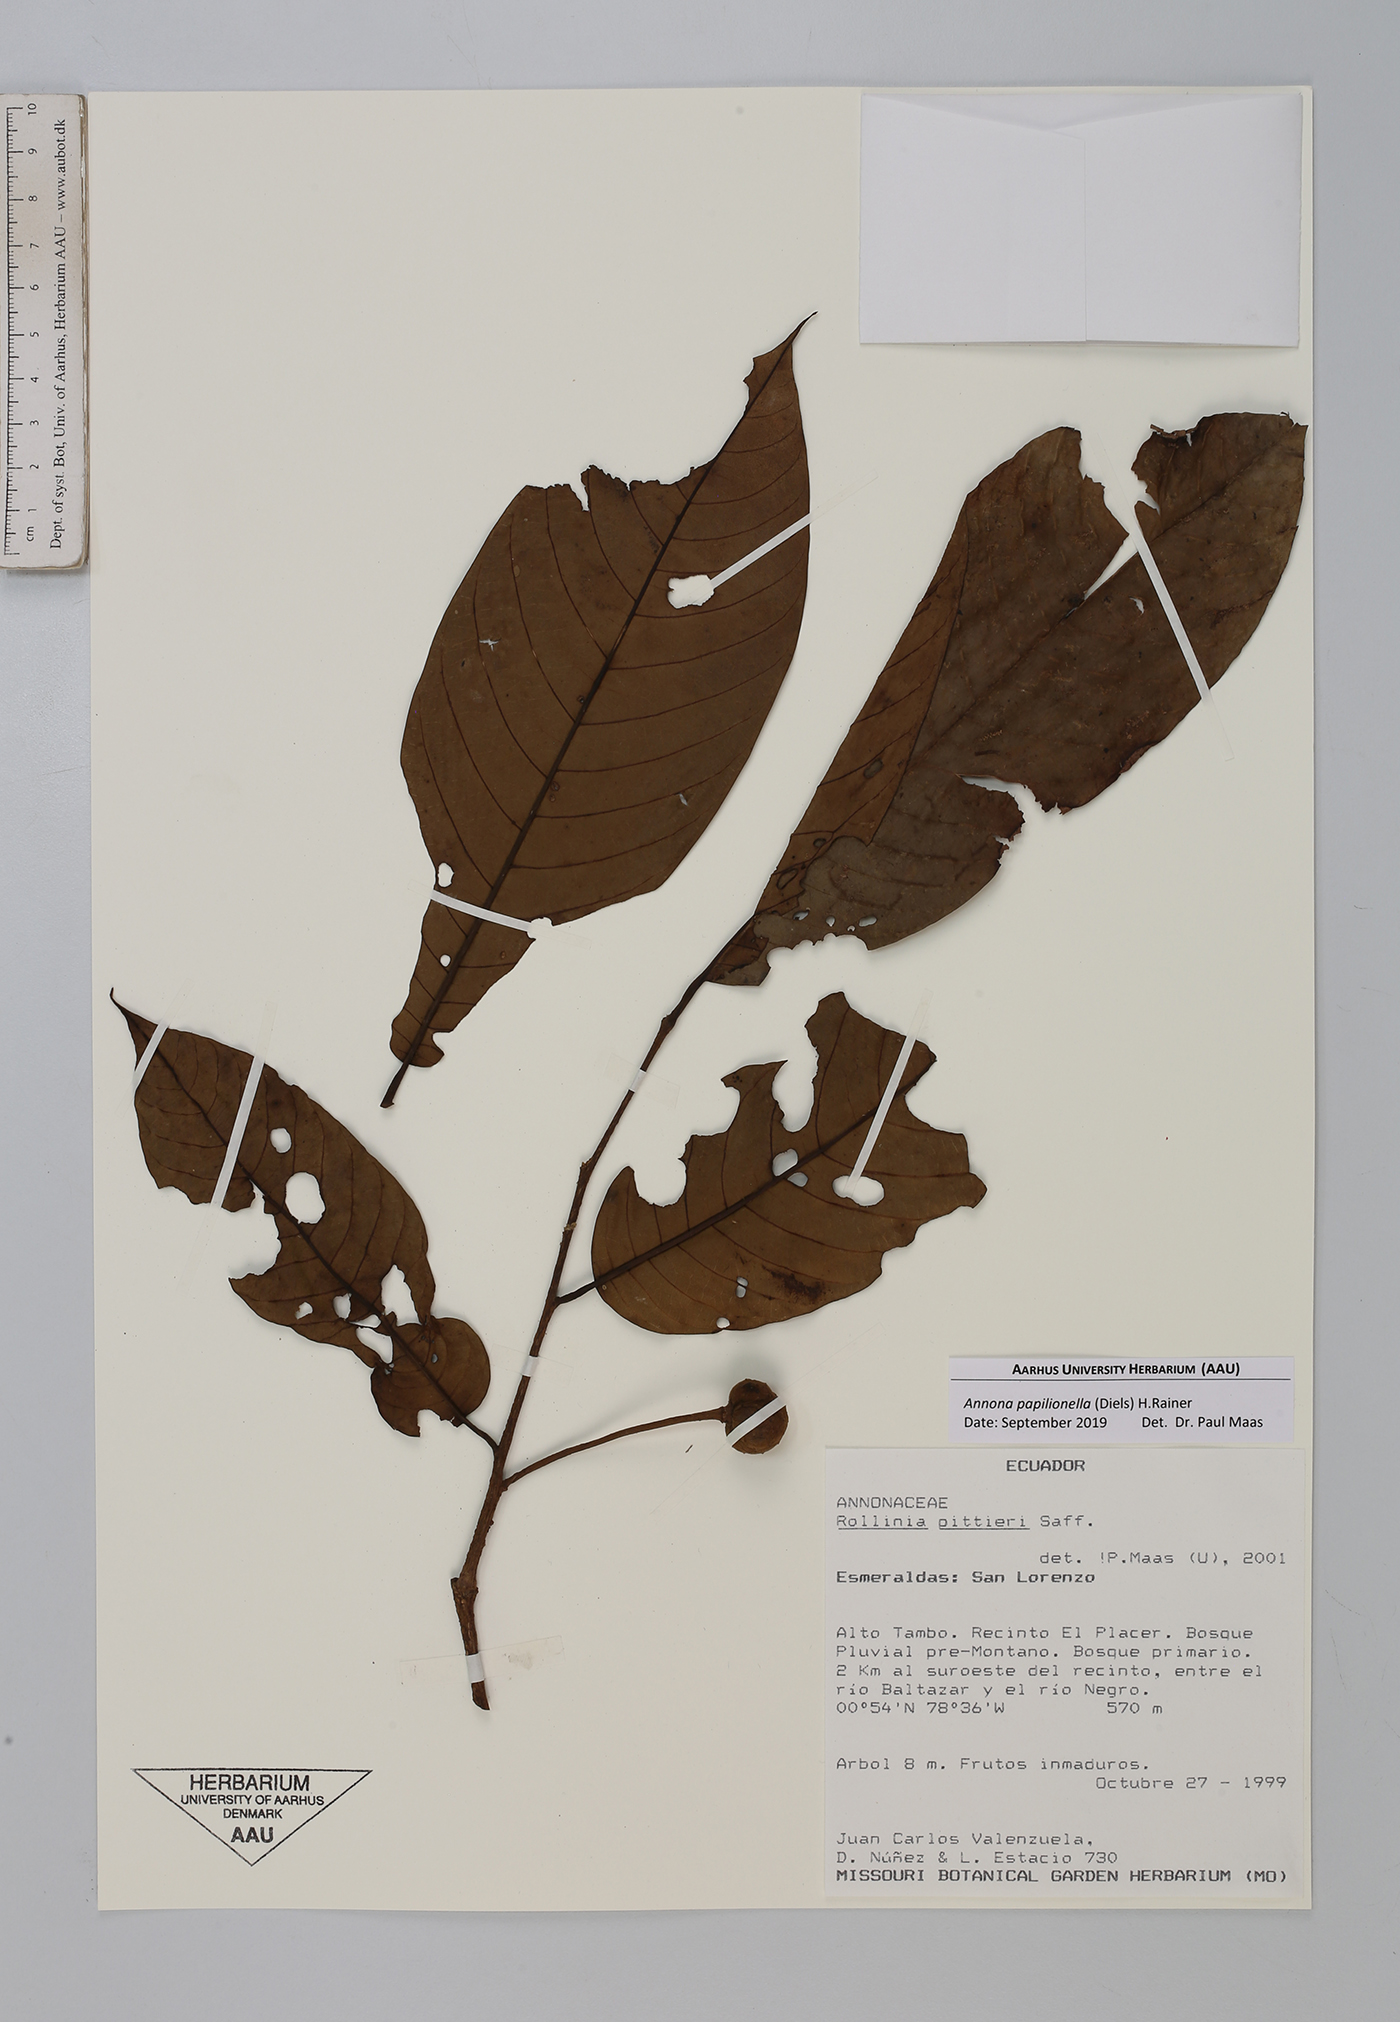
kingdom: Plantae
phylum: Tracheophyta
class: Magnoliopsida
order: Magnoliales
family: Annonaceae
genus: Annona
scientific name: Annona papilionella
